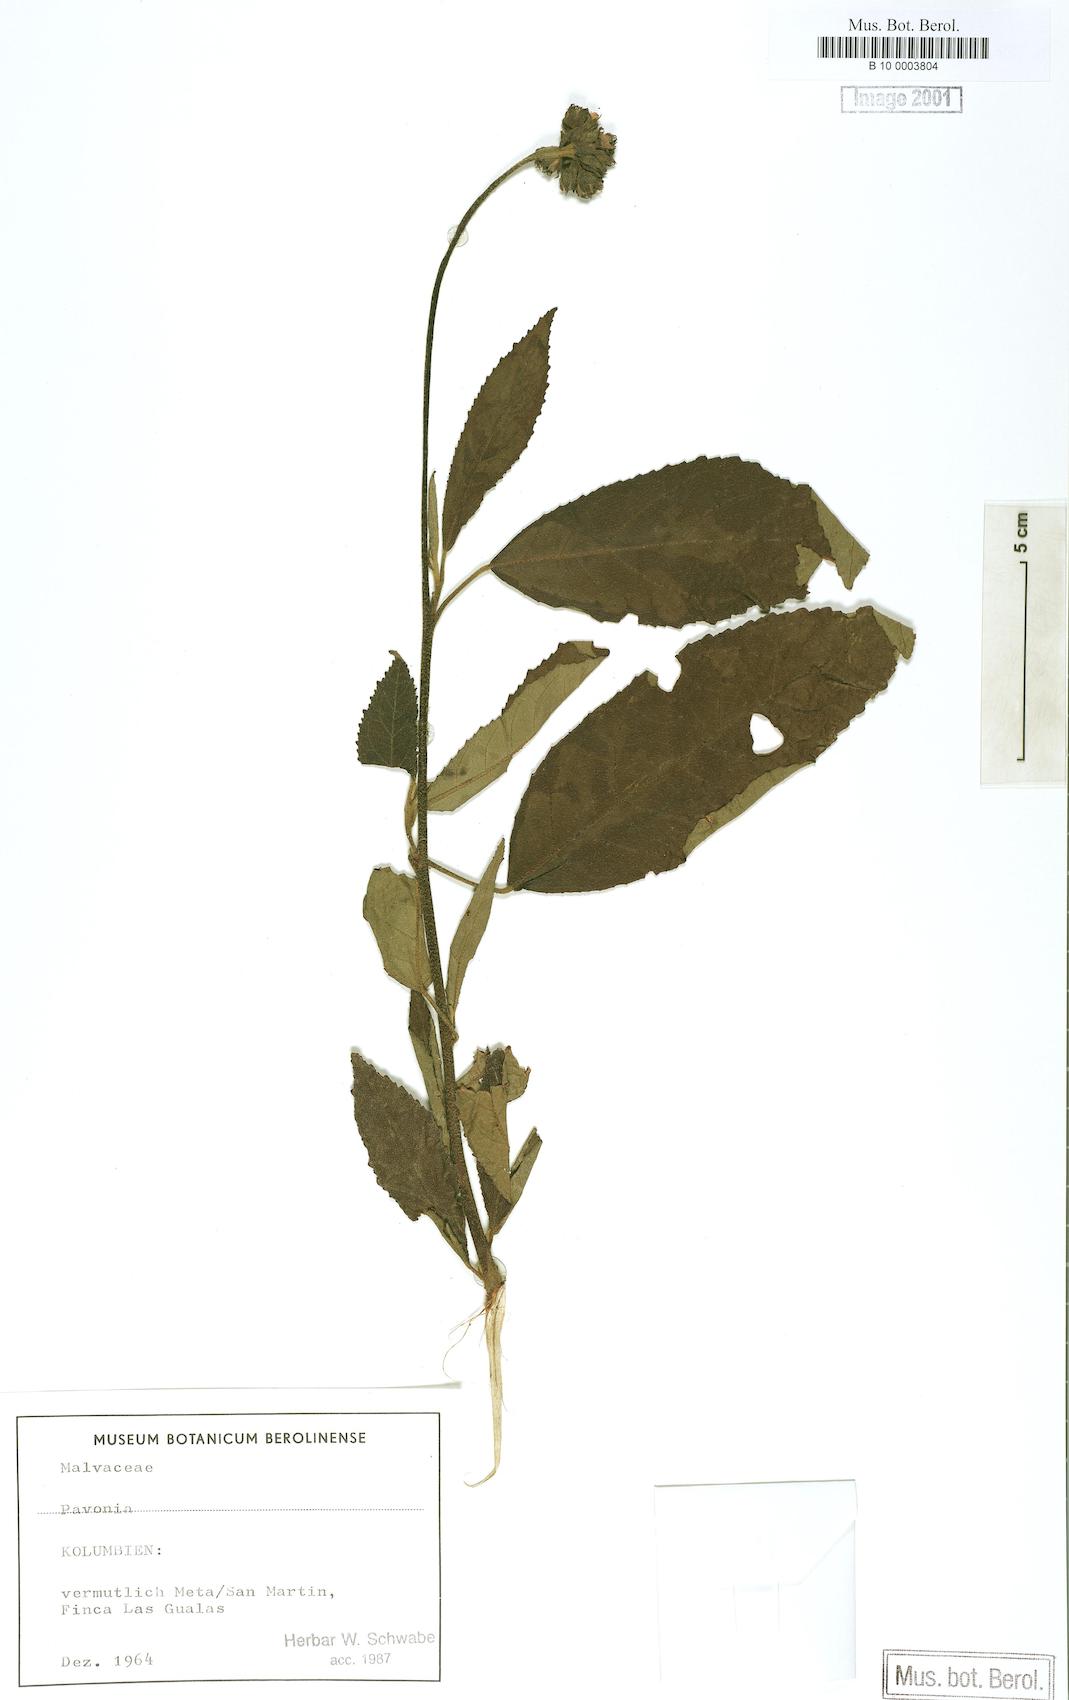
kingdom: Plantae
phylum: Tracheophyta
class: Magnoliopsida
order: Malvales
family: Malvaceae
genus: Pavonia
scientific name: Pavonia
